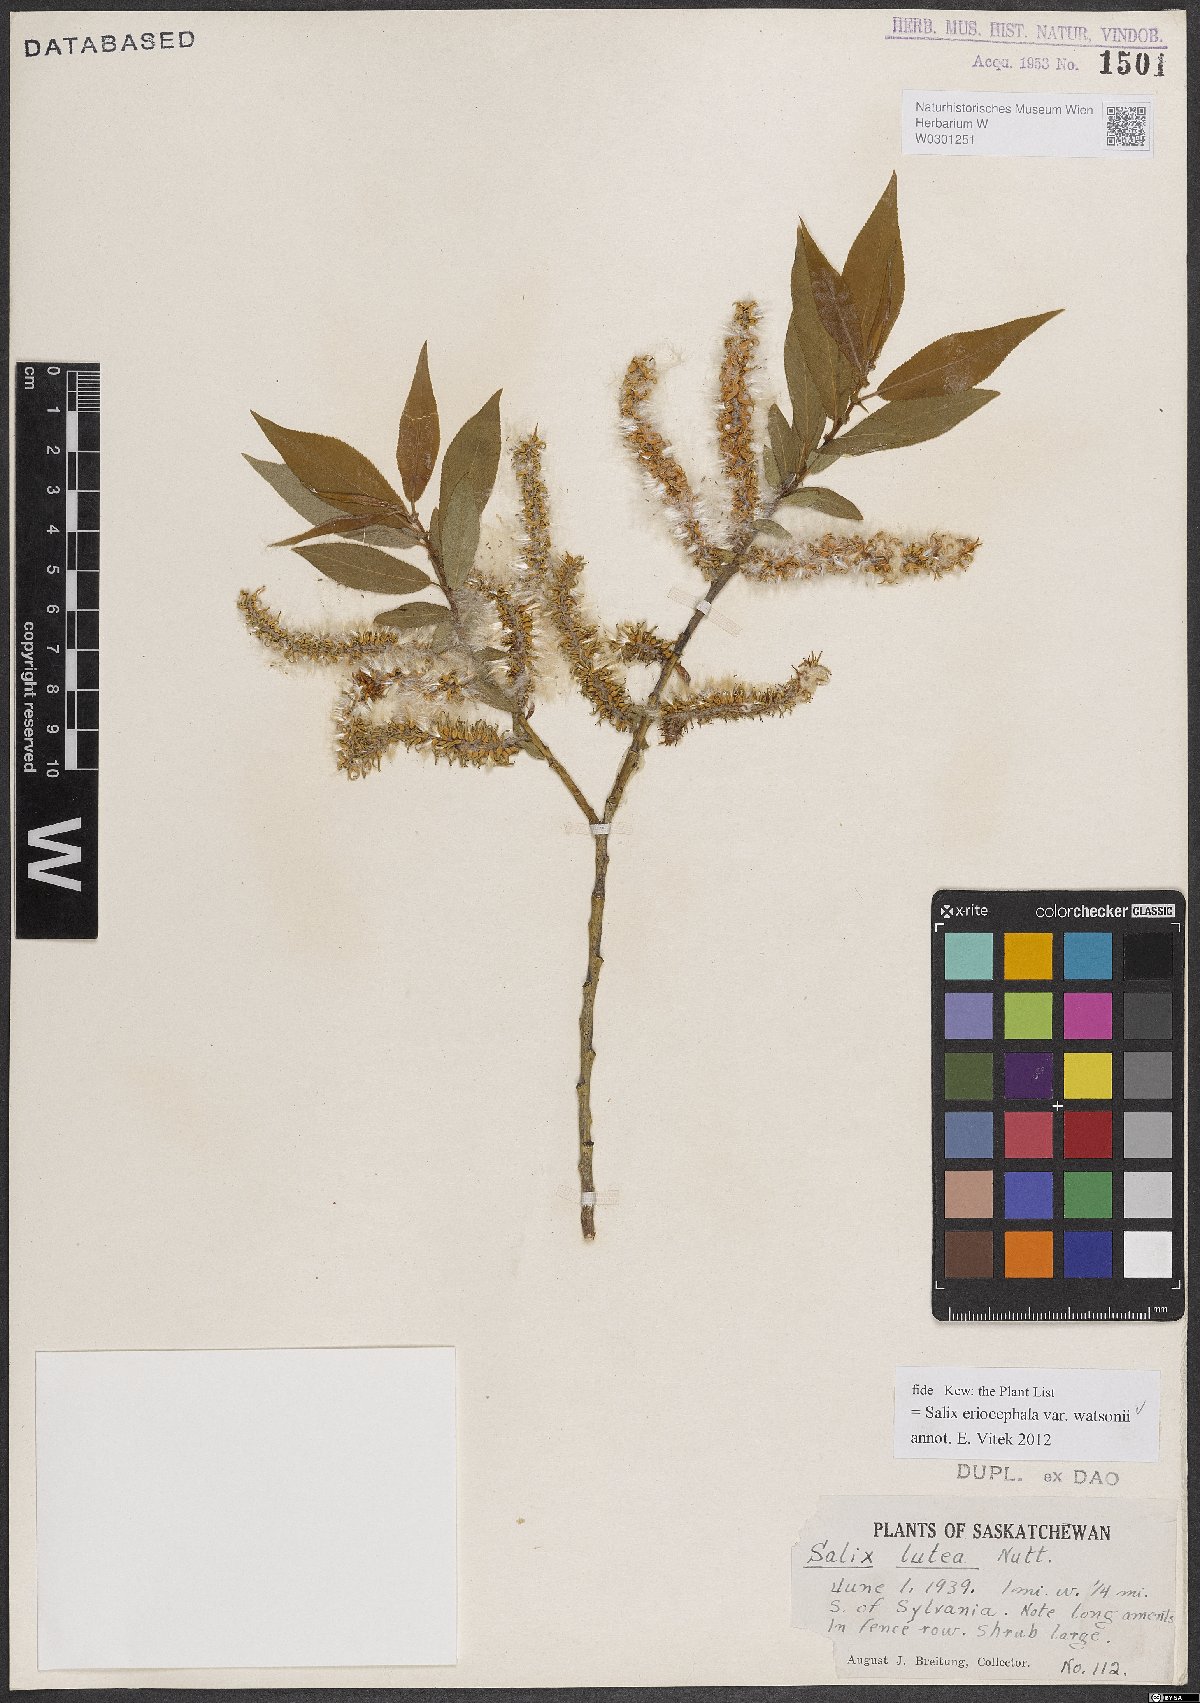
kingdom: Plantae
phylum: Tracheophyta
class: Magnoliopsida
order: Malpighiales
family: Salicaceae
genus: Salix
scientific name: Salix lutea
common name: Yellow willow
